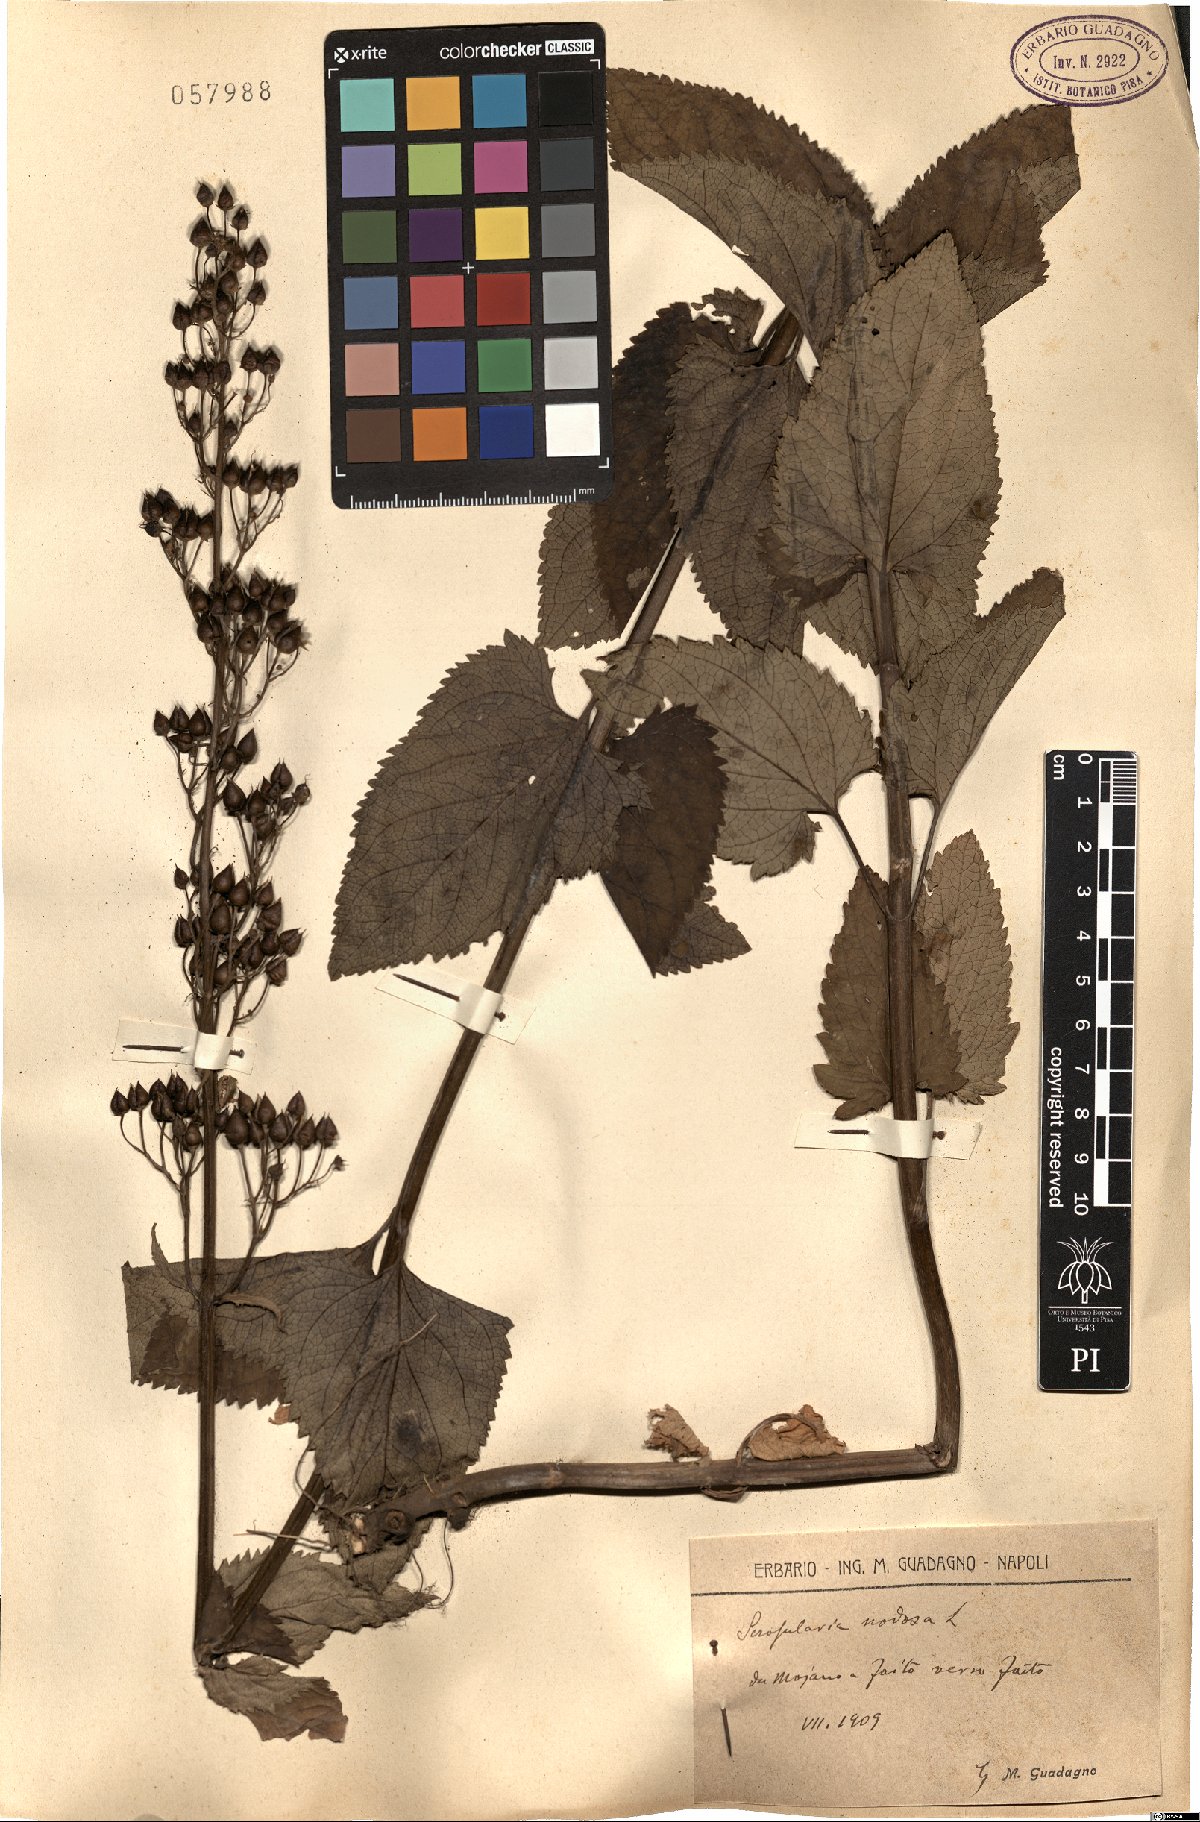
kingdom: Plantae
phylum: Tracheophyta
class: Magnoliopsida
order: Lamiales
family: Scrophulariaceae
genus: Scrophularia
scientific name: Scrophularia nodosa
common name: Common figwort
